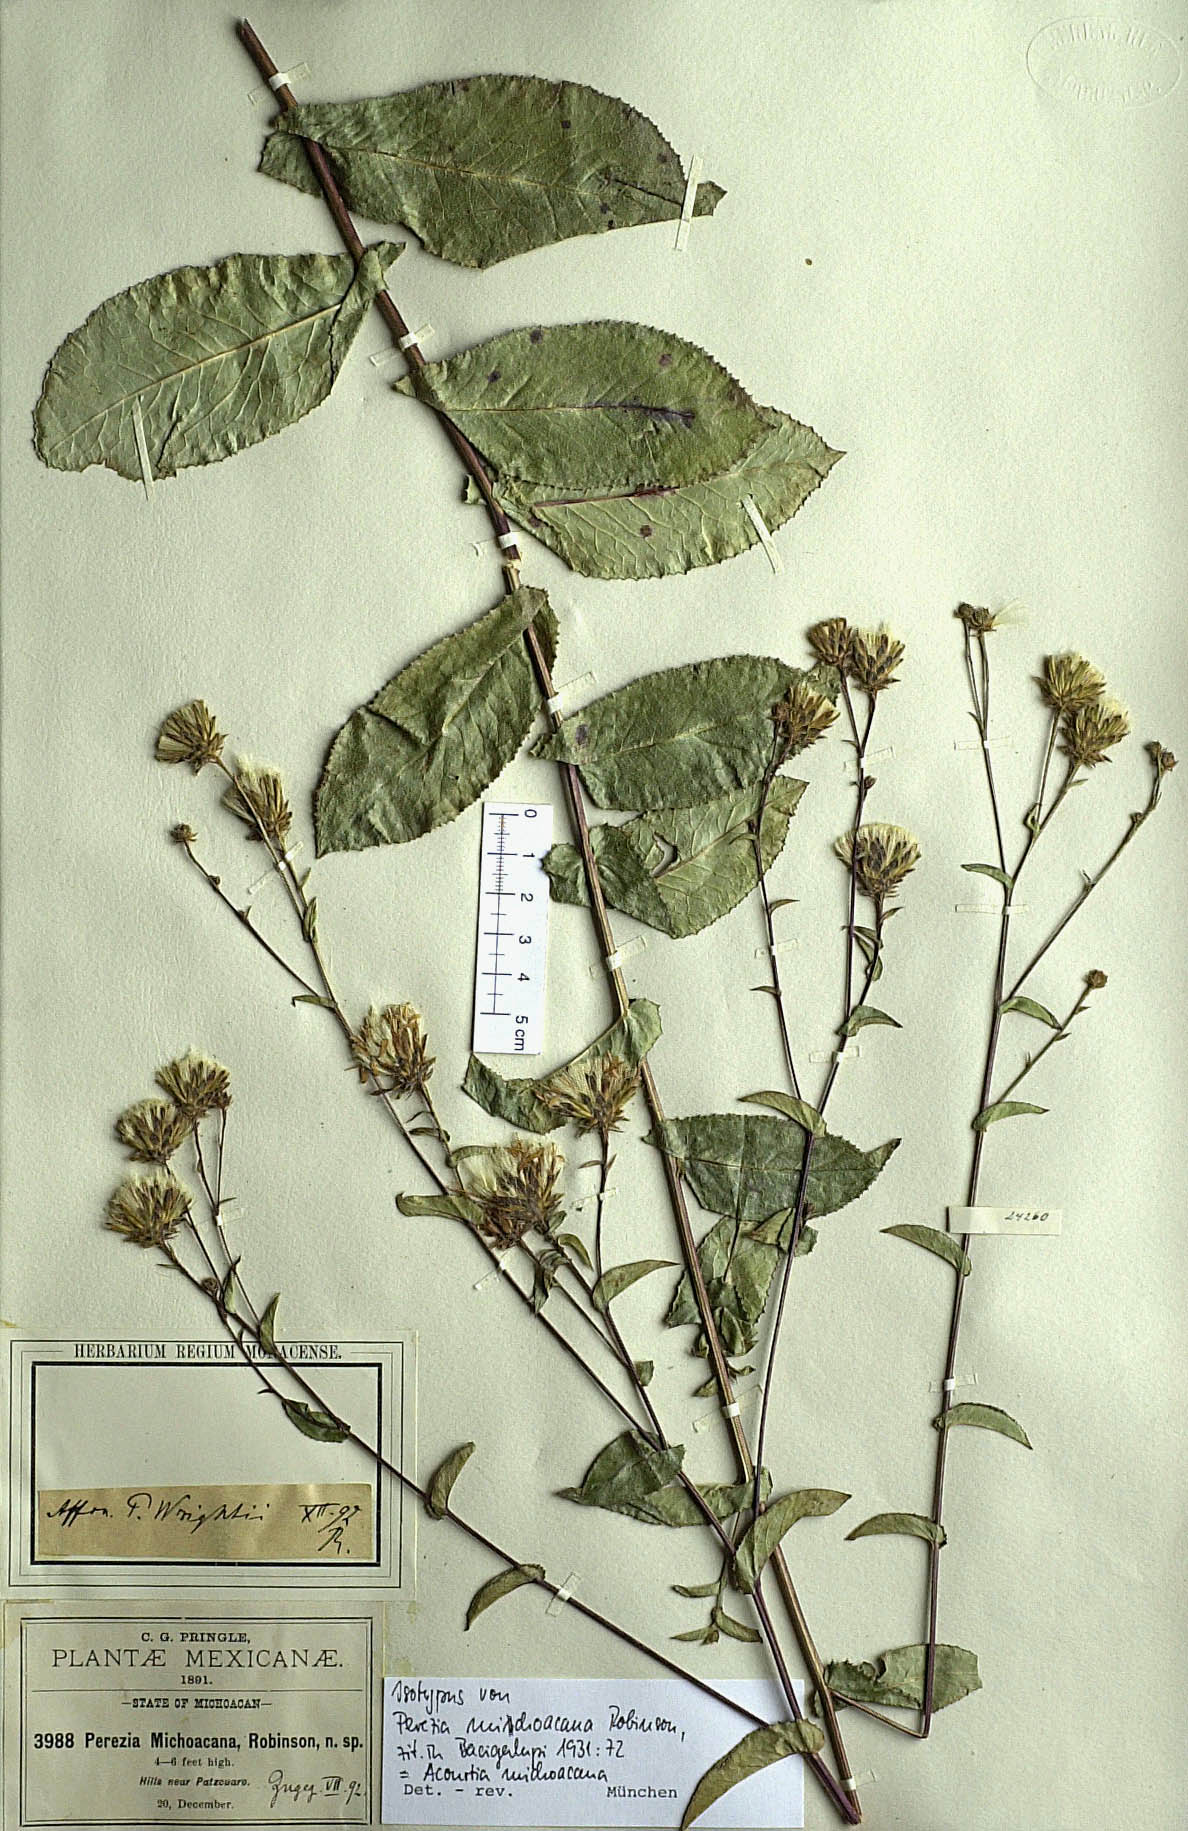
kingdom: Plantae
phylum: Tracheophyta
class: Magnoliopsida
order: Asterales
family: Asteraceae
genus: Acourtia
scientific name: Acourtia michoacana
